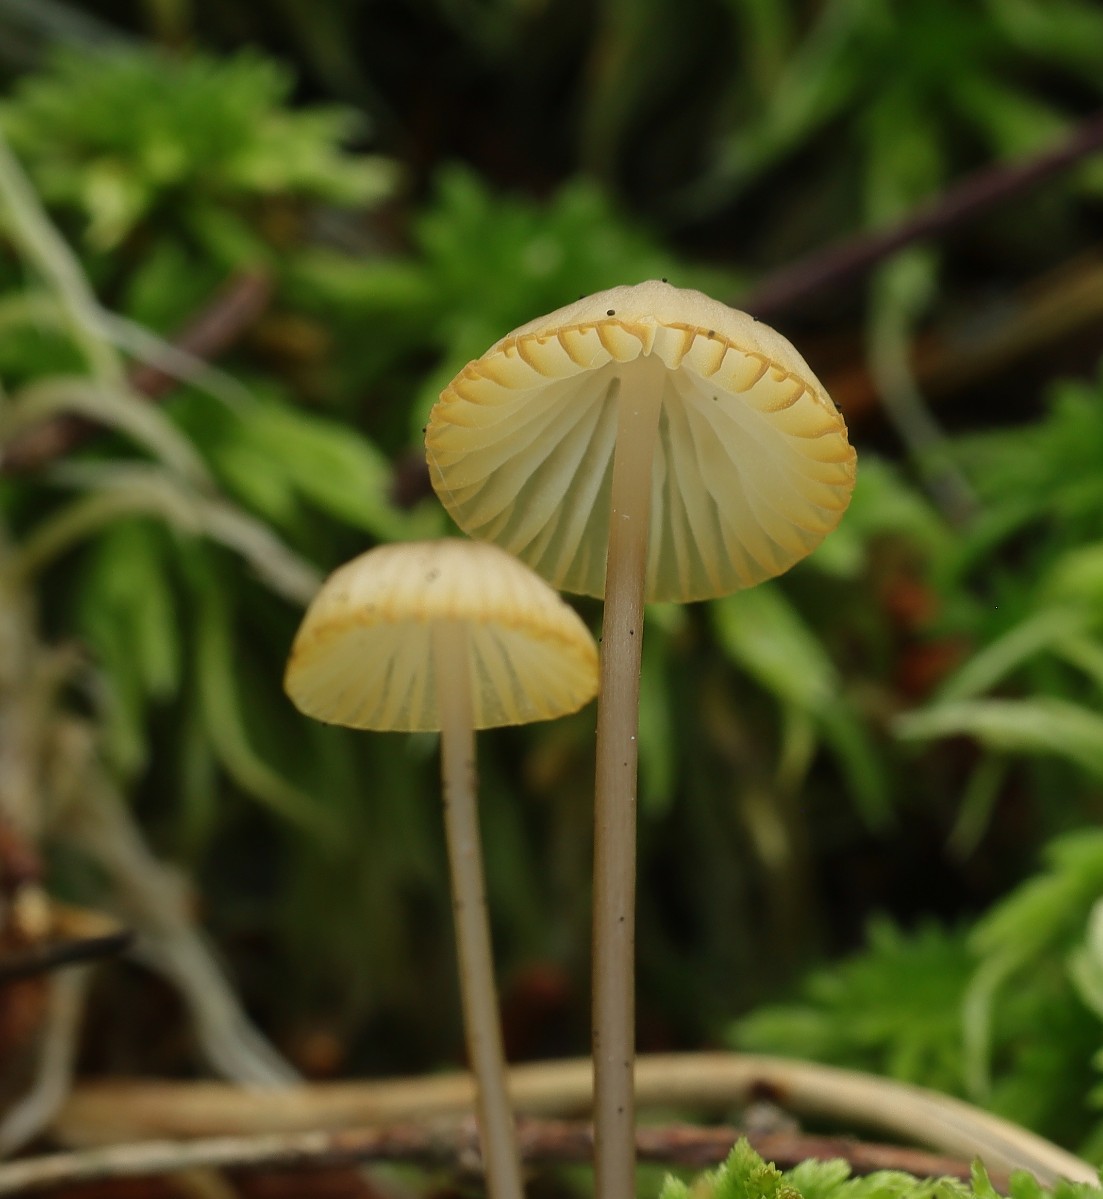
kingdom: Fungi
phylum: Basidiomycota
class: Agaricomycetes
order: Agaricales
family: Mycenaceae
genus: Mycena
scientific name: Mycena galopus
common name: hvidmælket huesvamp
